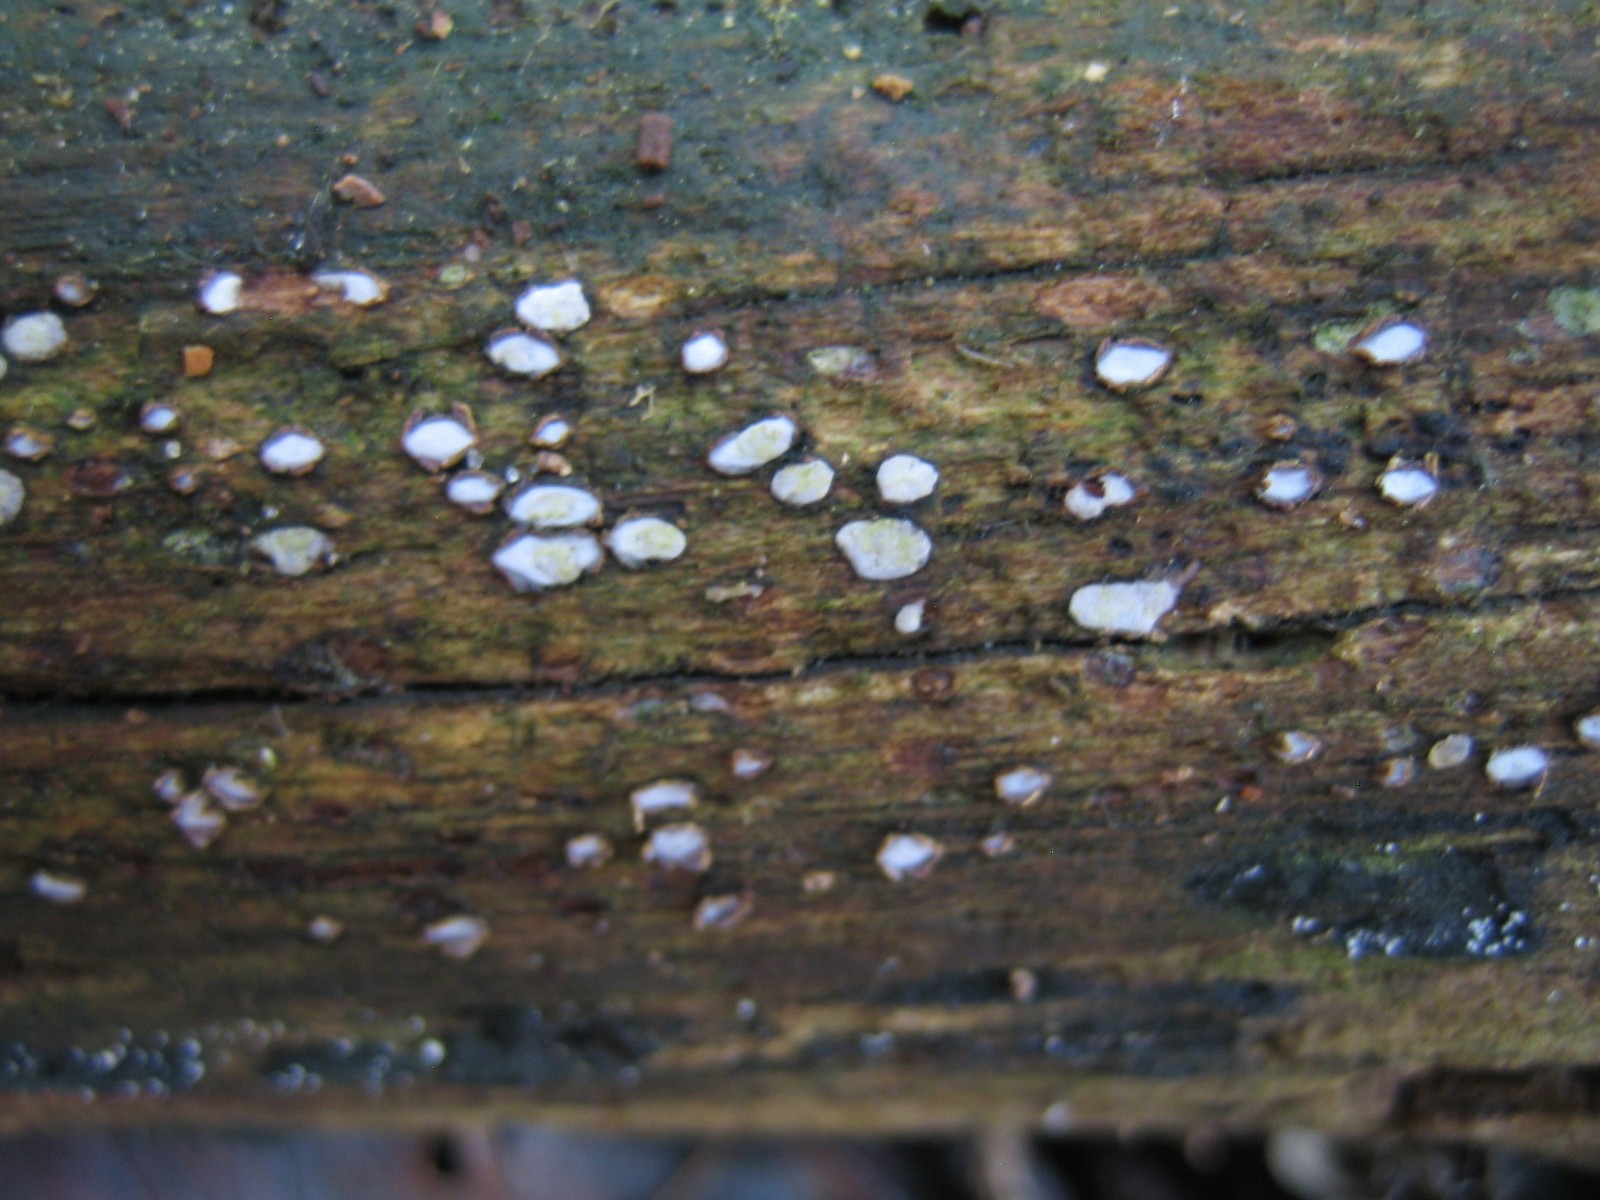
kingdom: Fungi
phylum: Ascomycota
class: Leotiomycetes
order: Chaetomellales
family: Marthamycetaceae
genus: Propolis
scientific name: Propolis farinosa
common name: almindelig vedsprængerskive
